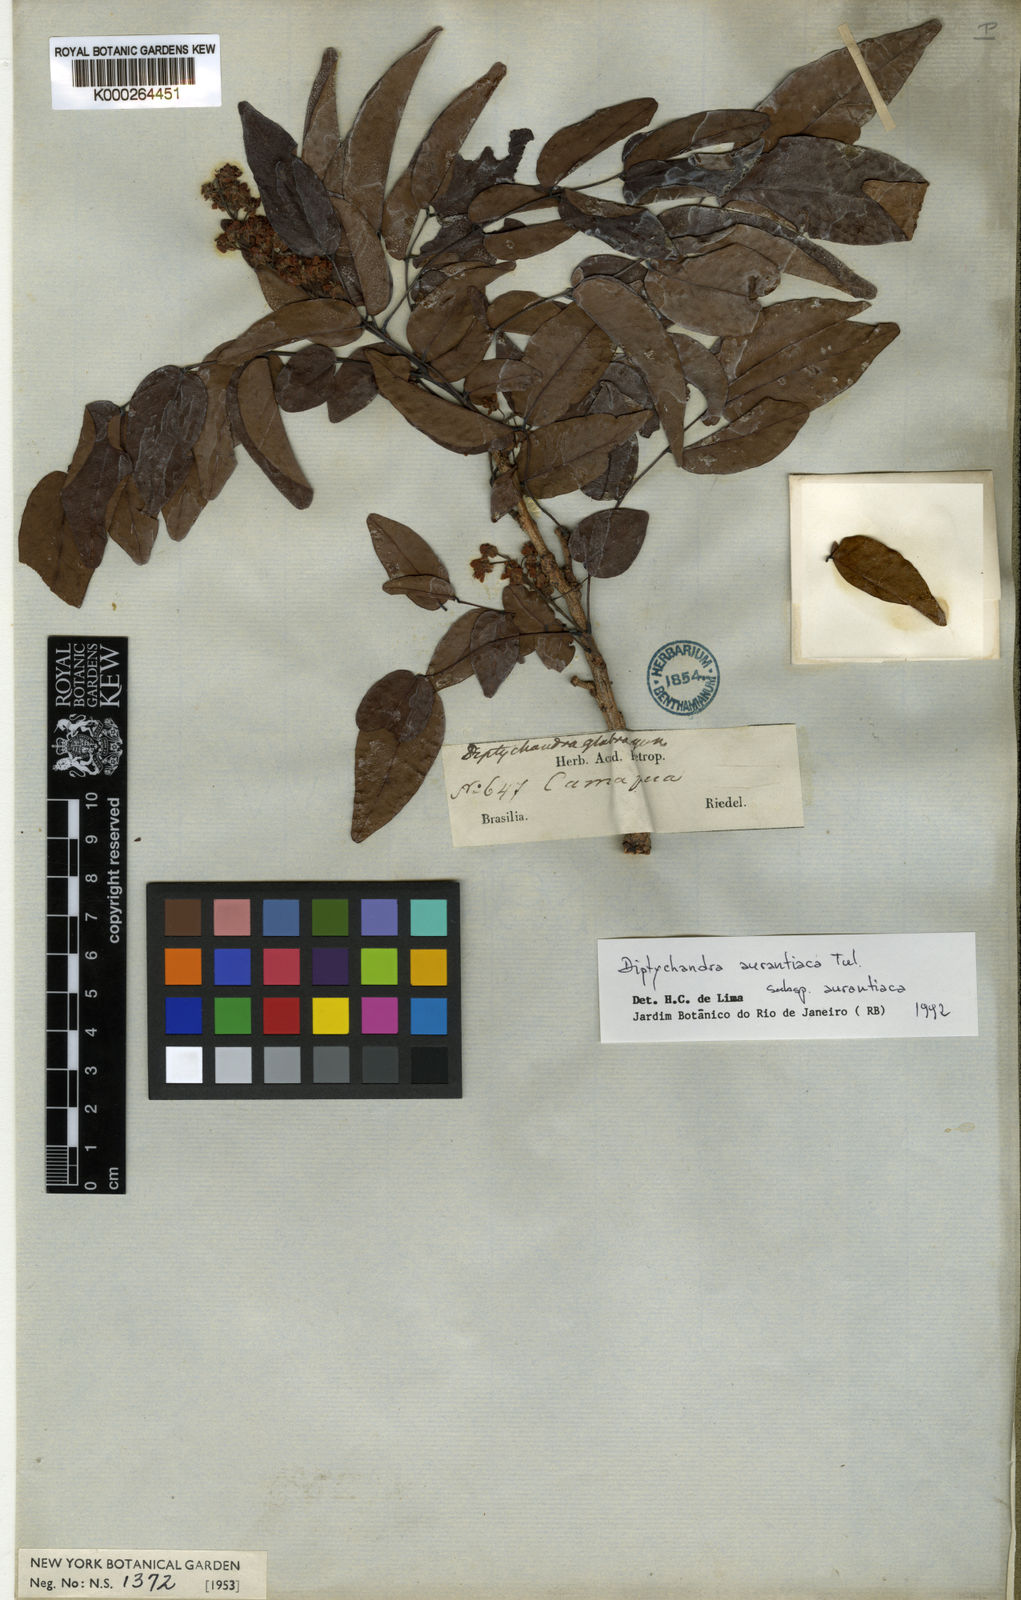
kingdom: Plantae
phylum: Tracheophyta
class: Magnoliopsida
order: Fabales
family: Fabaceae
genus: Diptychandra
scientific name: Diptychandra aurantiaca
